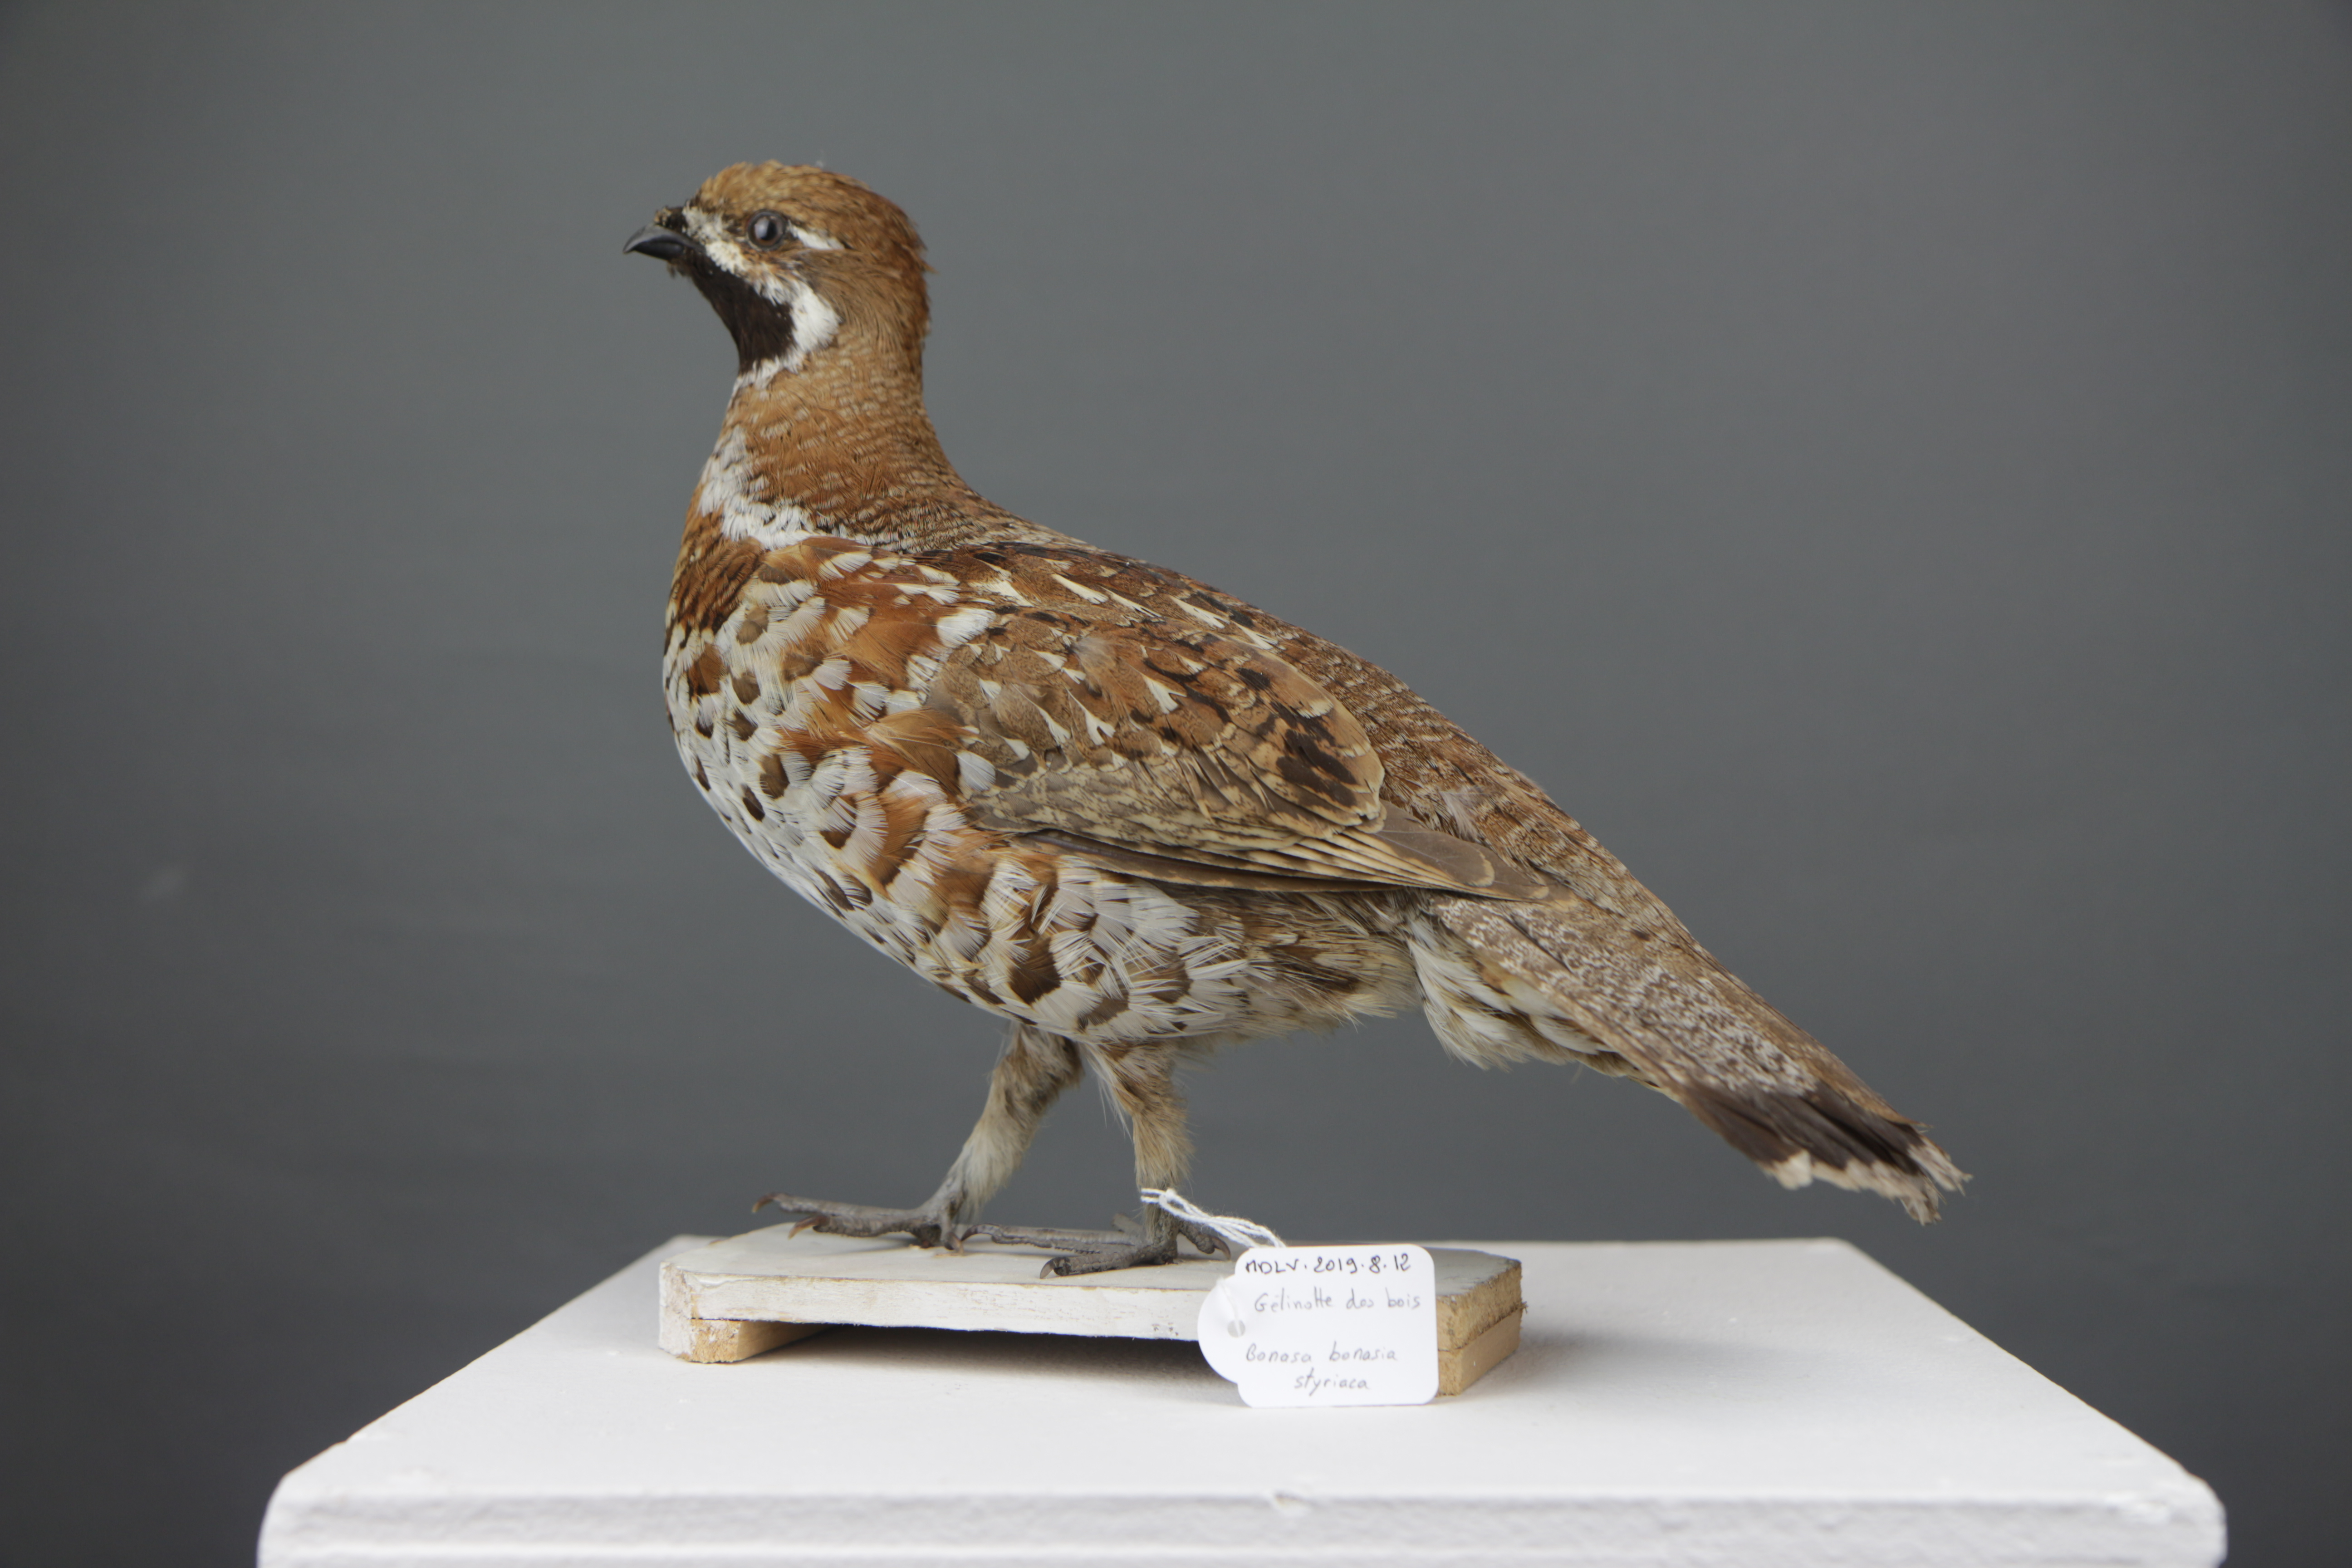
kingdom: Animalia
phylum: Chordata
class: Aves
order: Galliformes
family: Phasianidae
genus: Tetrastes
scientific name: Tetrastes bonasia
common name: Hazel grouse
